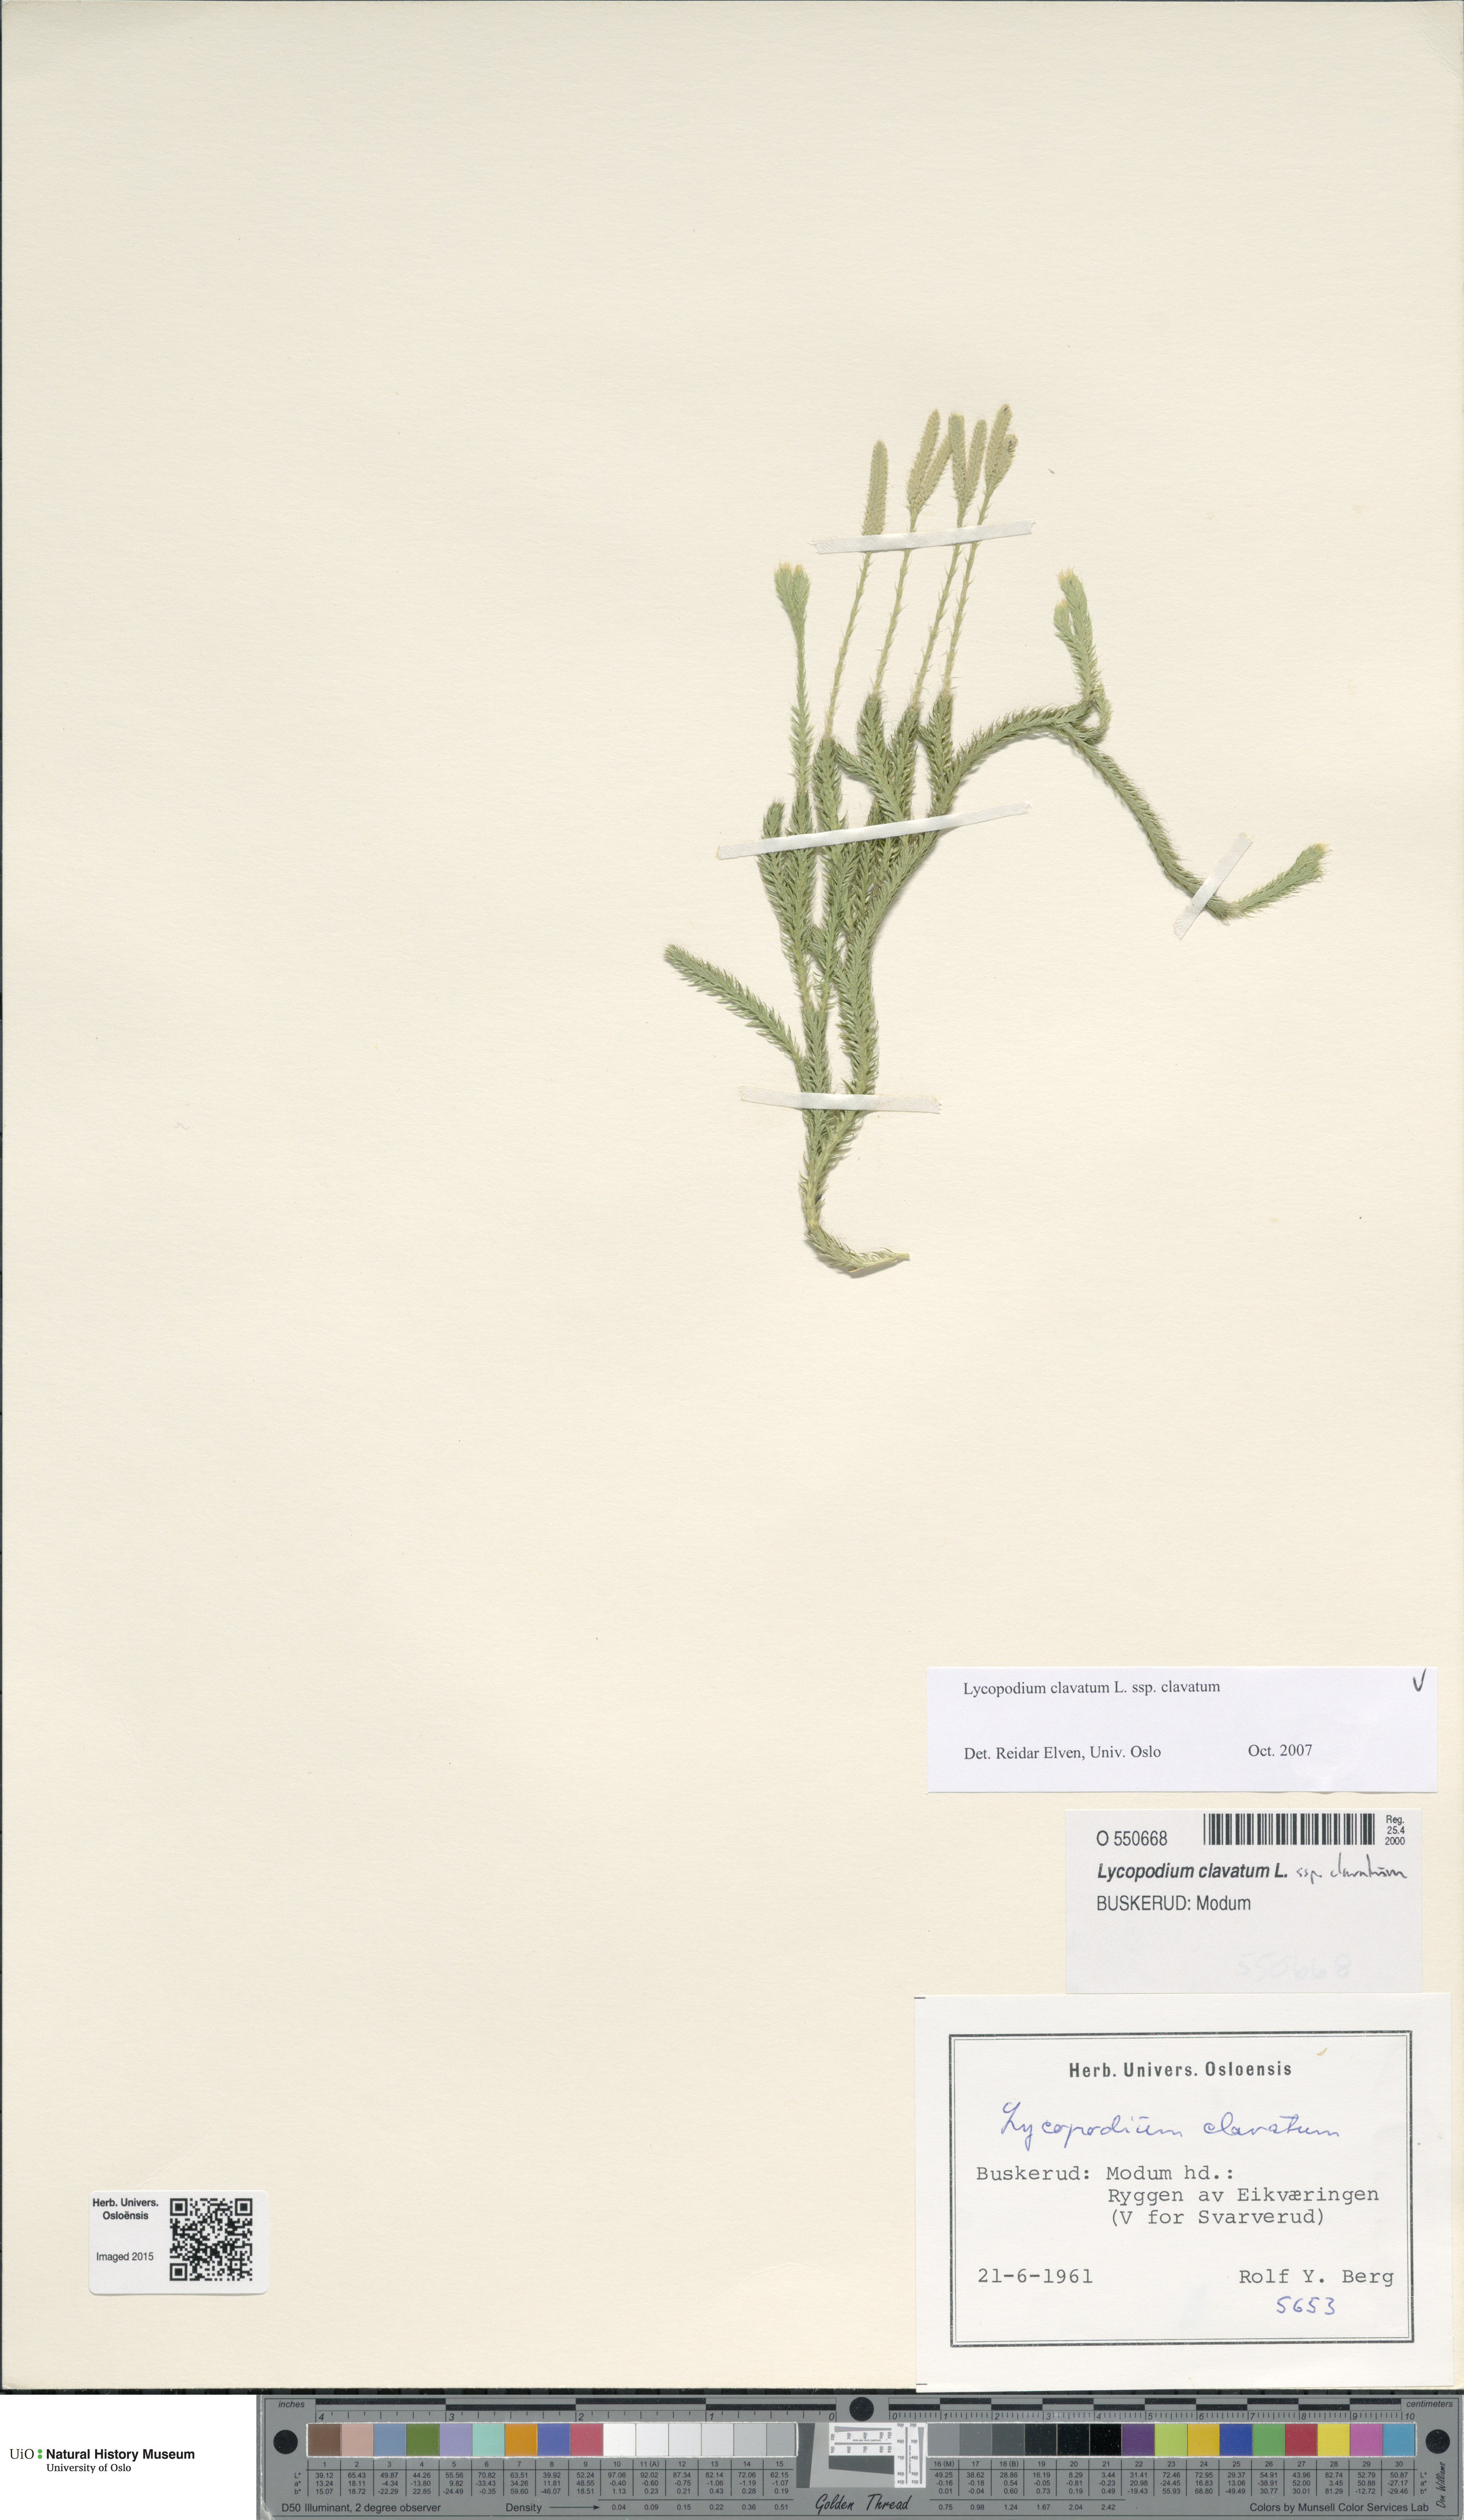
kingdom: Plantae
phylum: Tracheophyta
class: Lycopodiopsida
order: Lycopodiales
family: Lycopodiaceae
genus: Lycopodium
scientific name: Lycopodium clavatum
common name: Stag's-horn clubmoss
